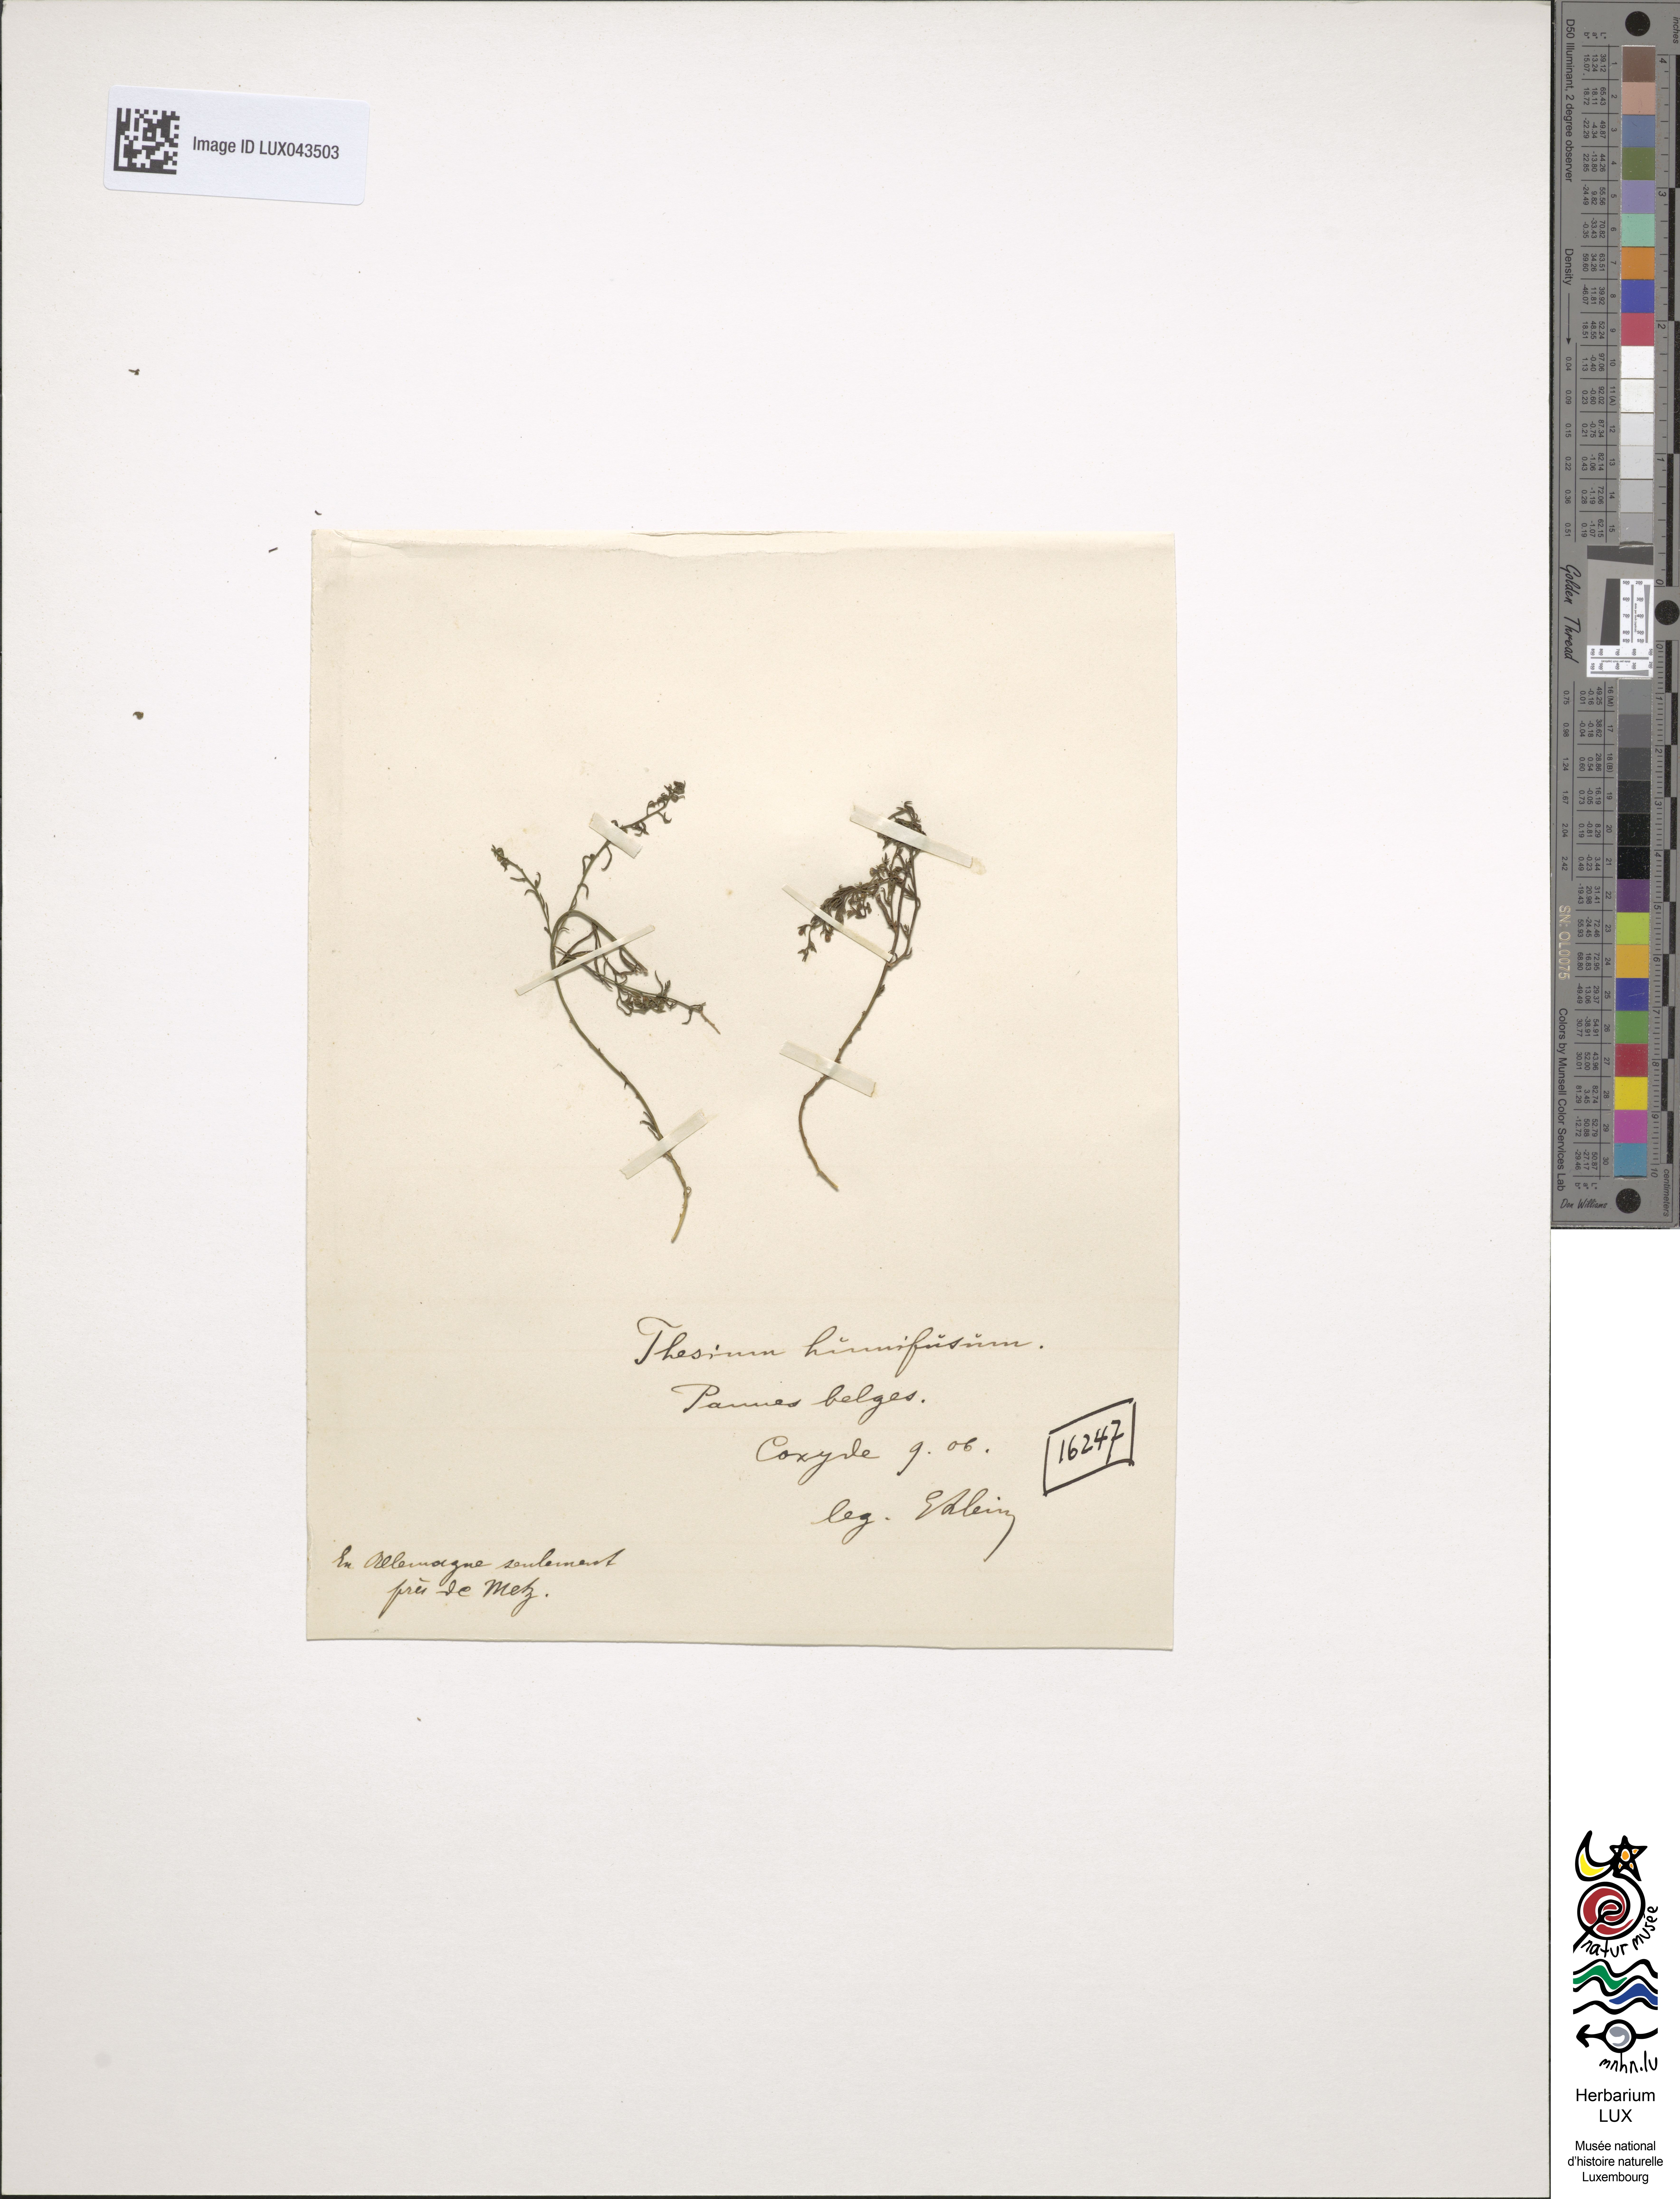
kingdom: Plantae
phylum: Tracheophyta
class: Magnoliopsida
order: Santalales
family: Thesiaceae
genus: Thesium
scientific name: Thesium humifusum
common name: Bastard-toadflax
